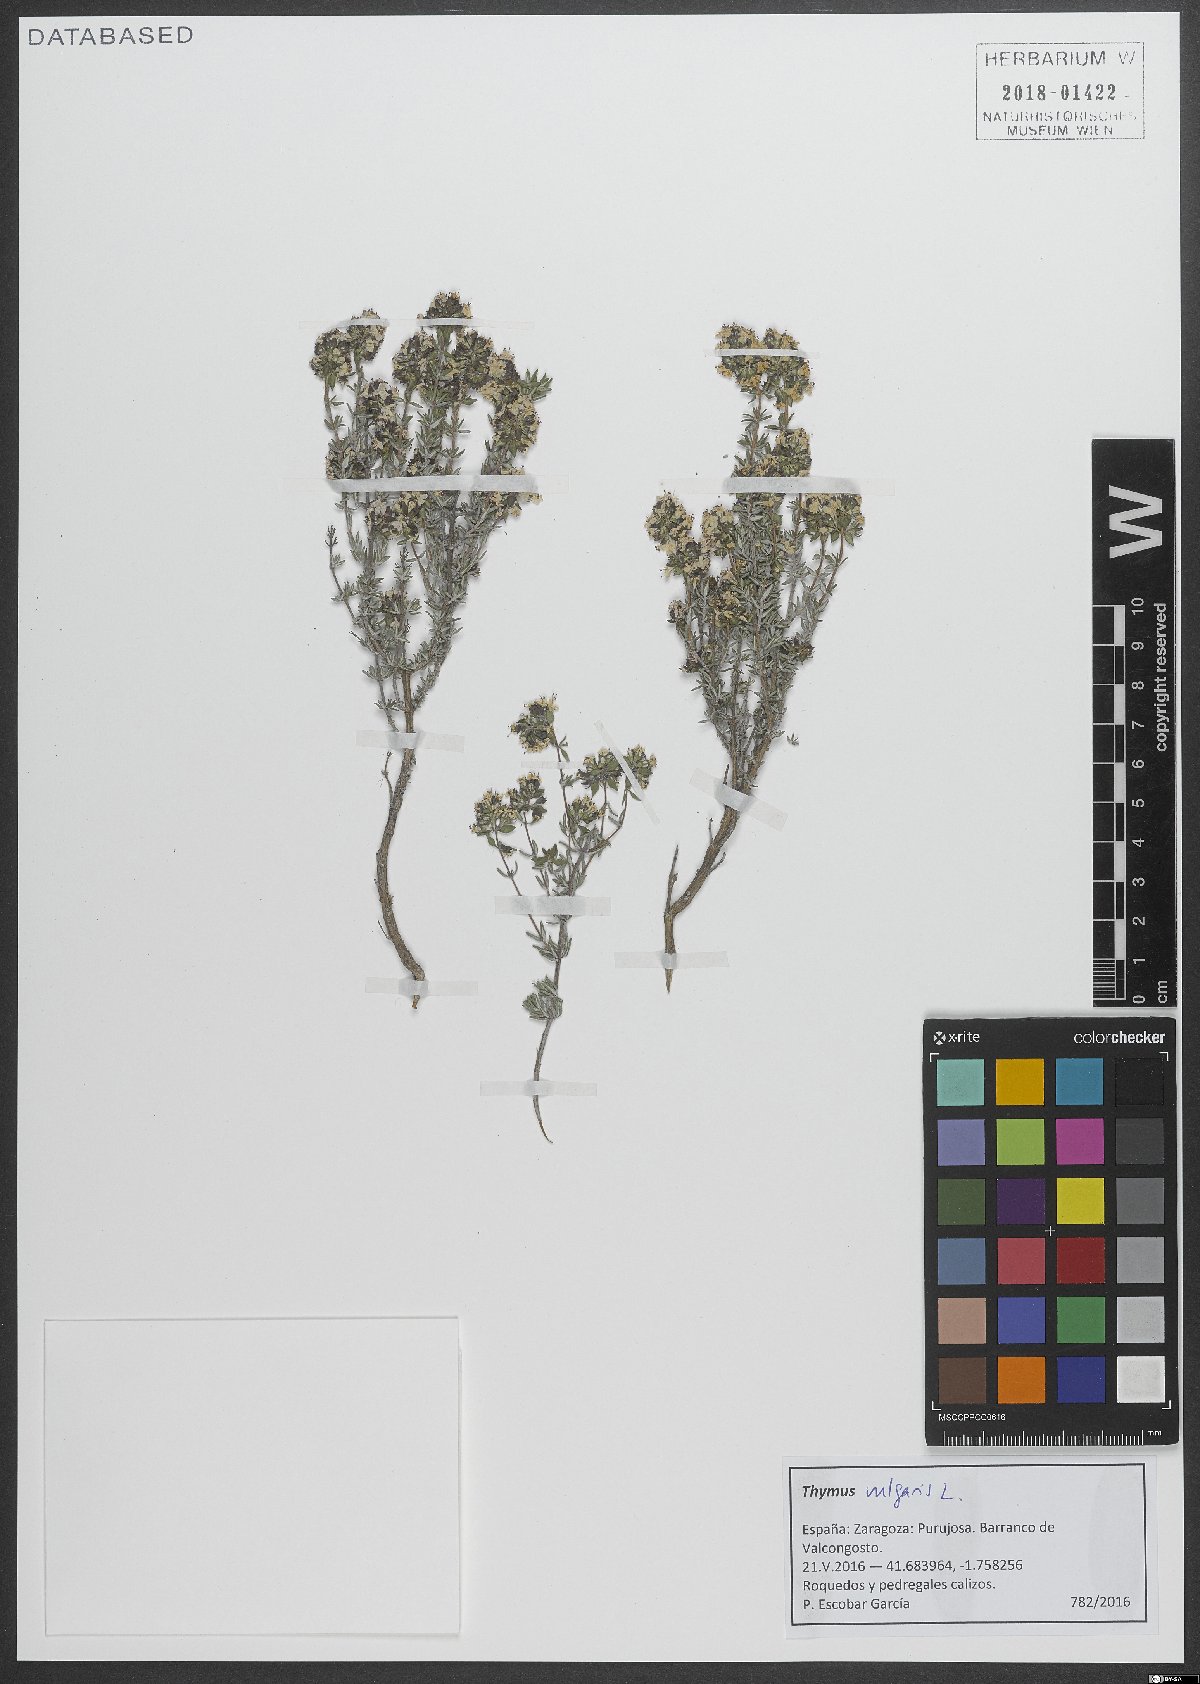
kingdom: Plantae
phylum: Tracheophyta
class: Magnoliopsida
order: Lamiales
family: Lamiaceae
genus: Thymus
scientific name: Thymus vulgaris
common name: Garden thyme
